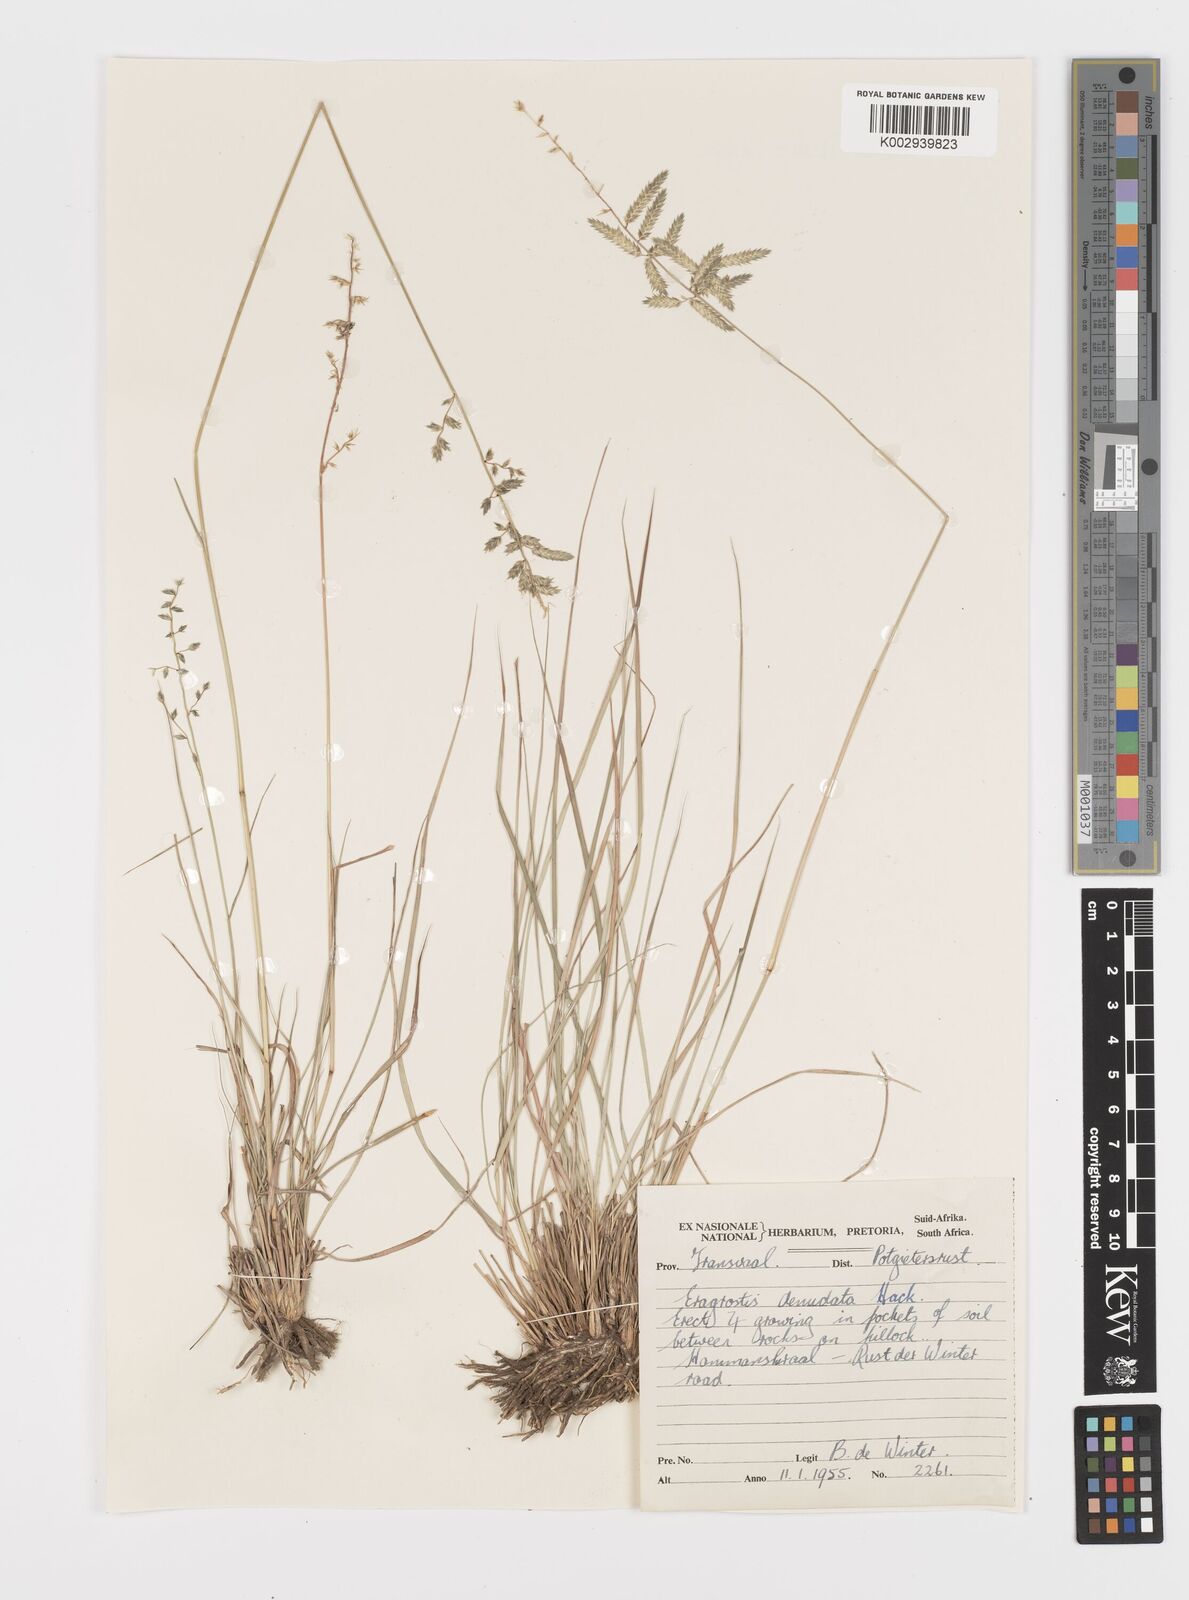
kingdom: Plantae
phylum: Tracheophyta
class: Liliopsida
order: Poales
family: Poaceae
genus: Eragrostis
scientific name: Eragrostis nindensis
